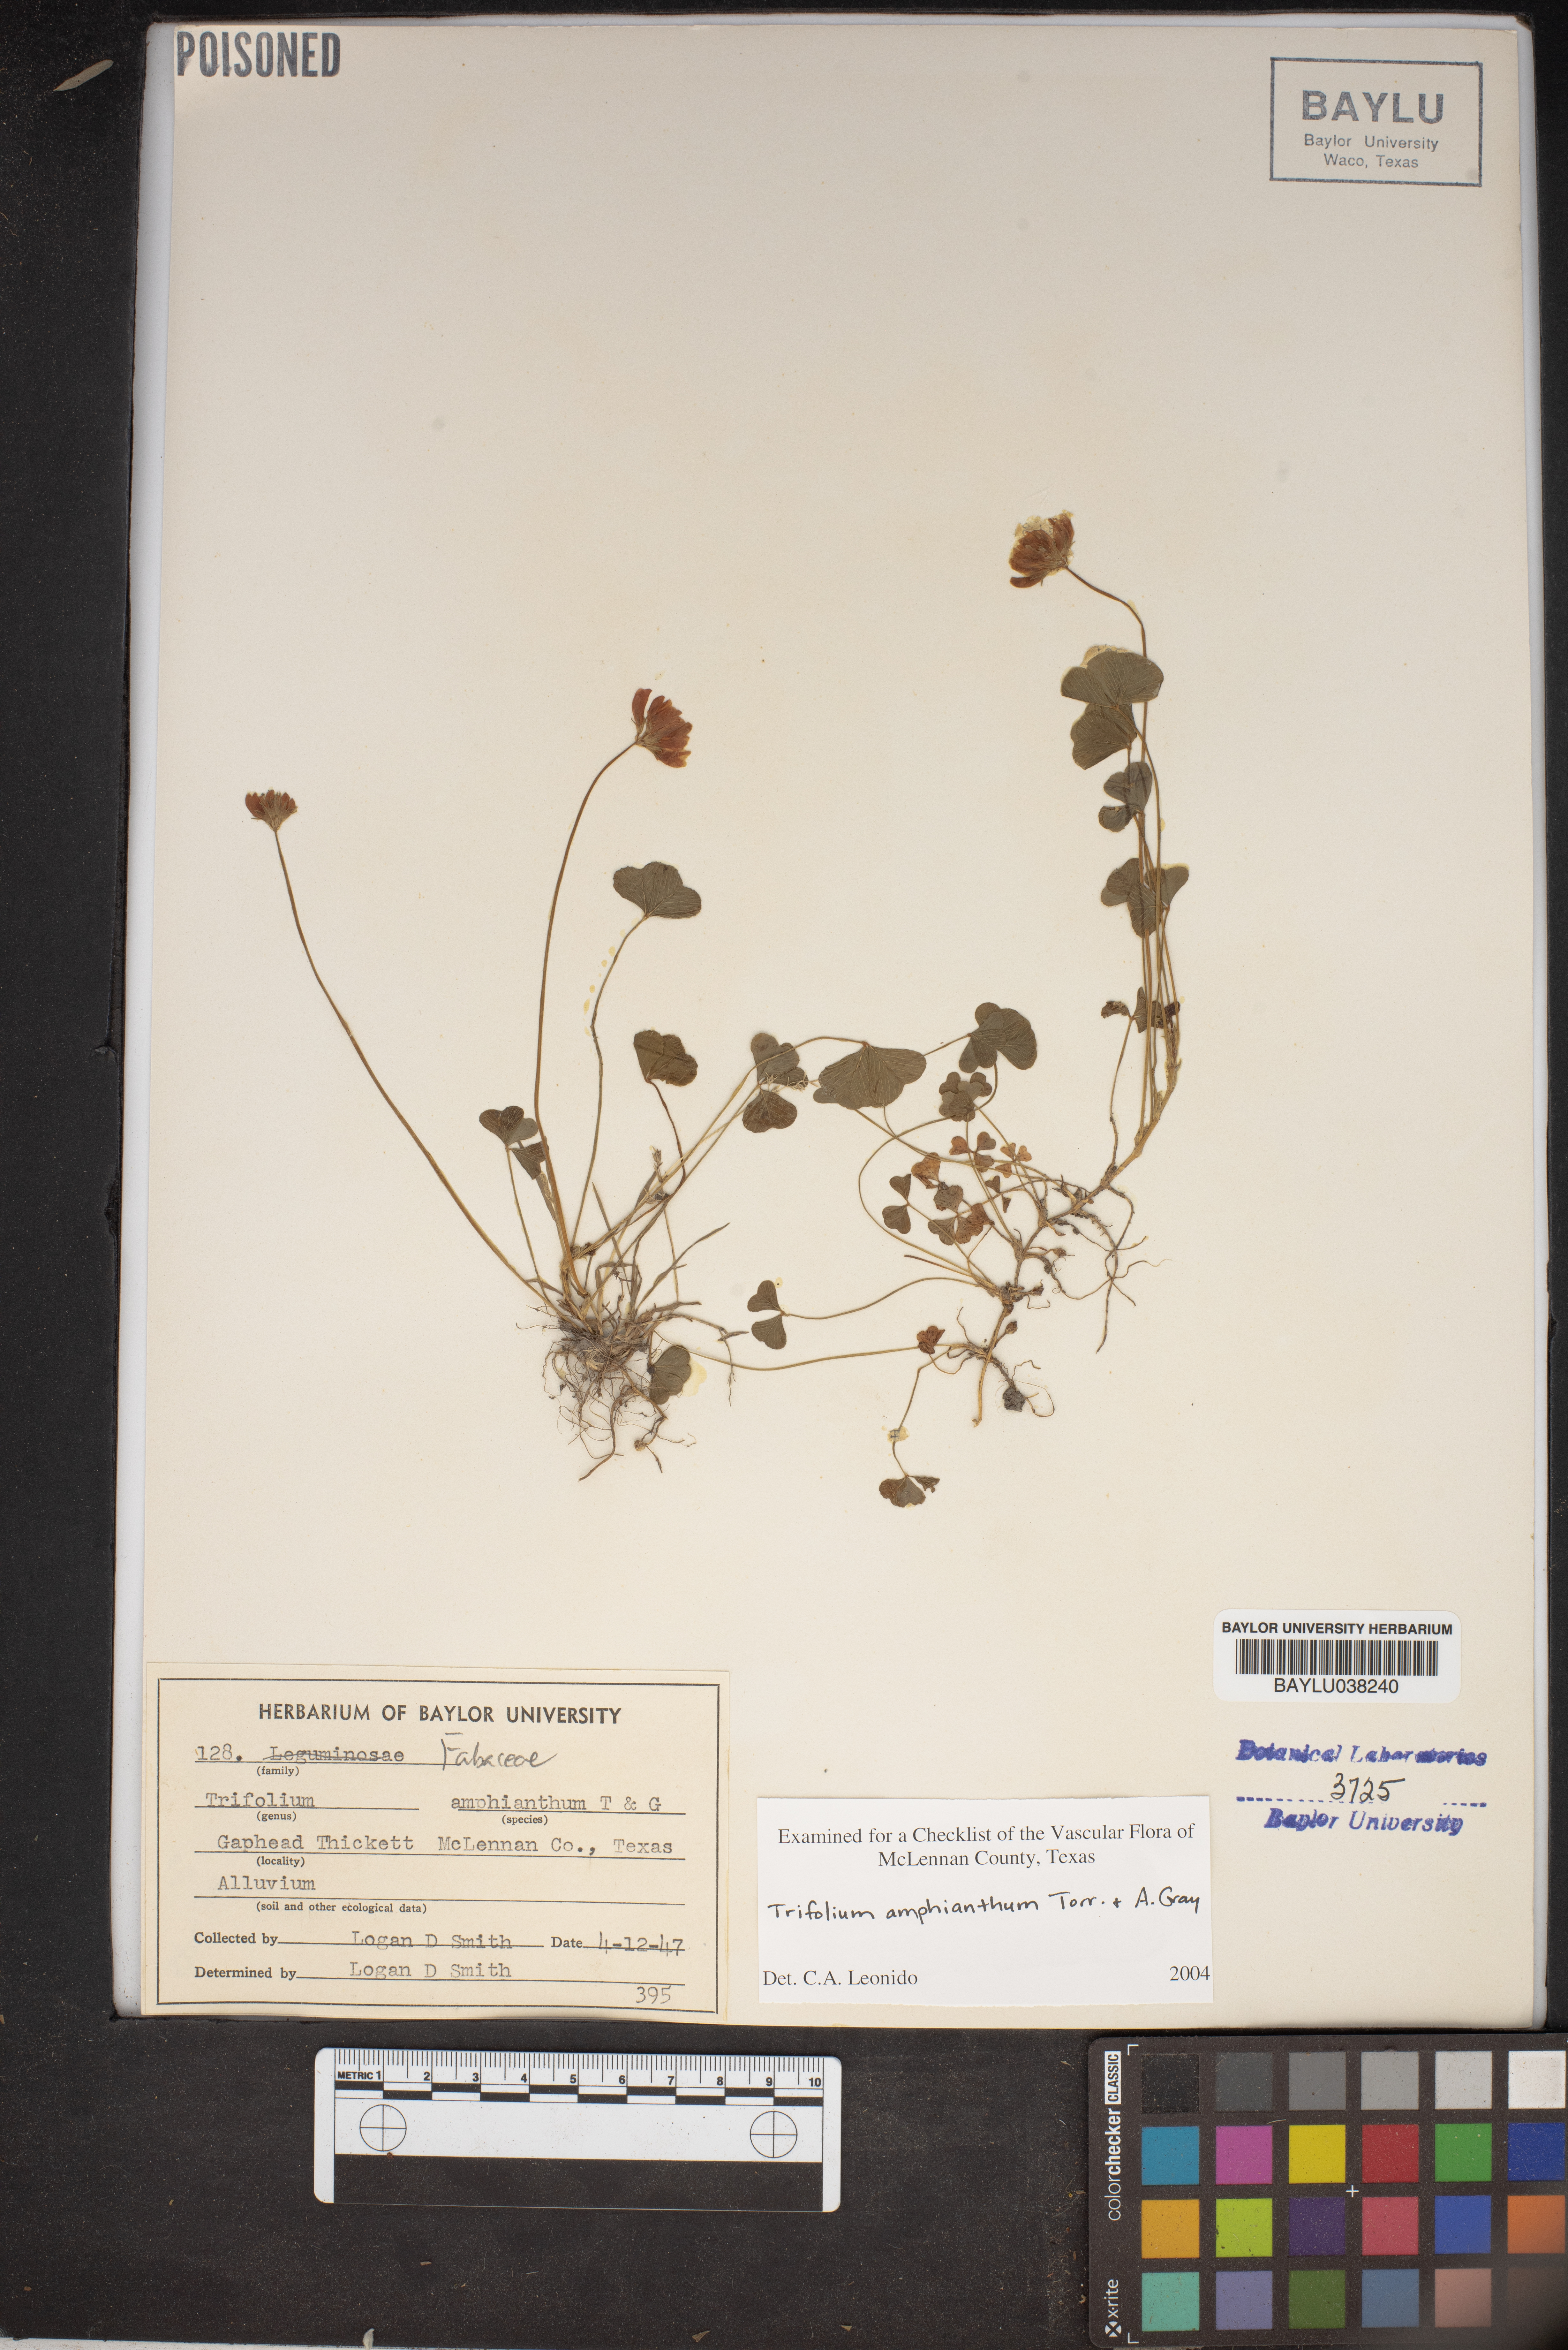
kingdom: Plantae
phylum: Tracheophyta
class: Magnoliopsida
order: Fabales
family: Fabaceae
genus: Trifolium
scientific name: Trifolium amphianthum
